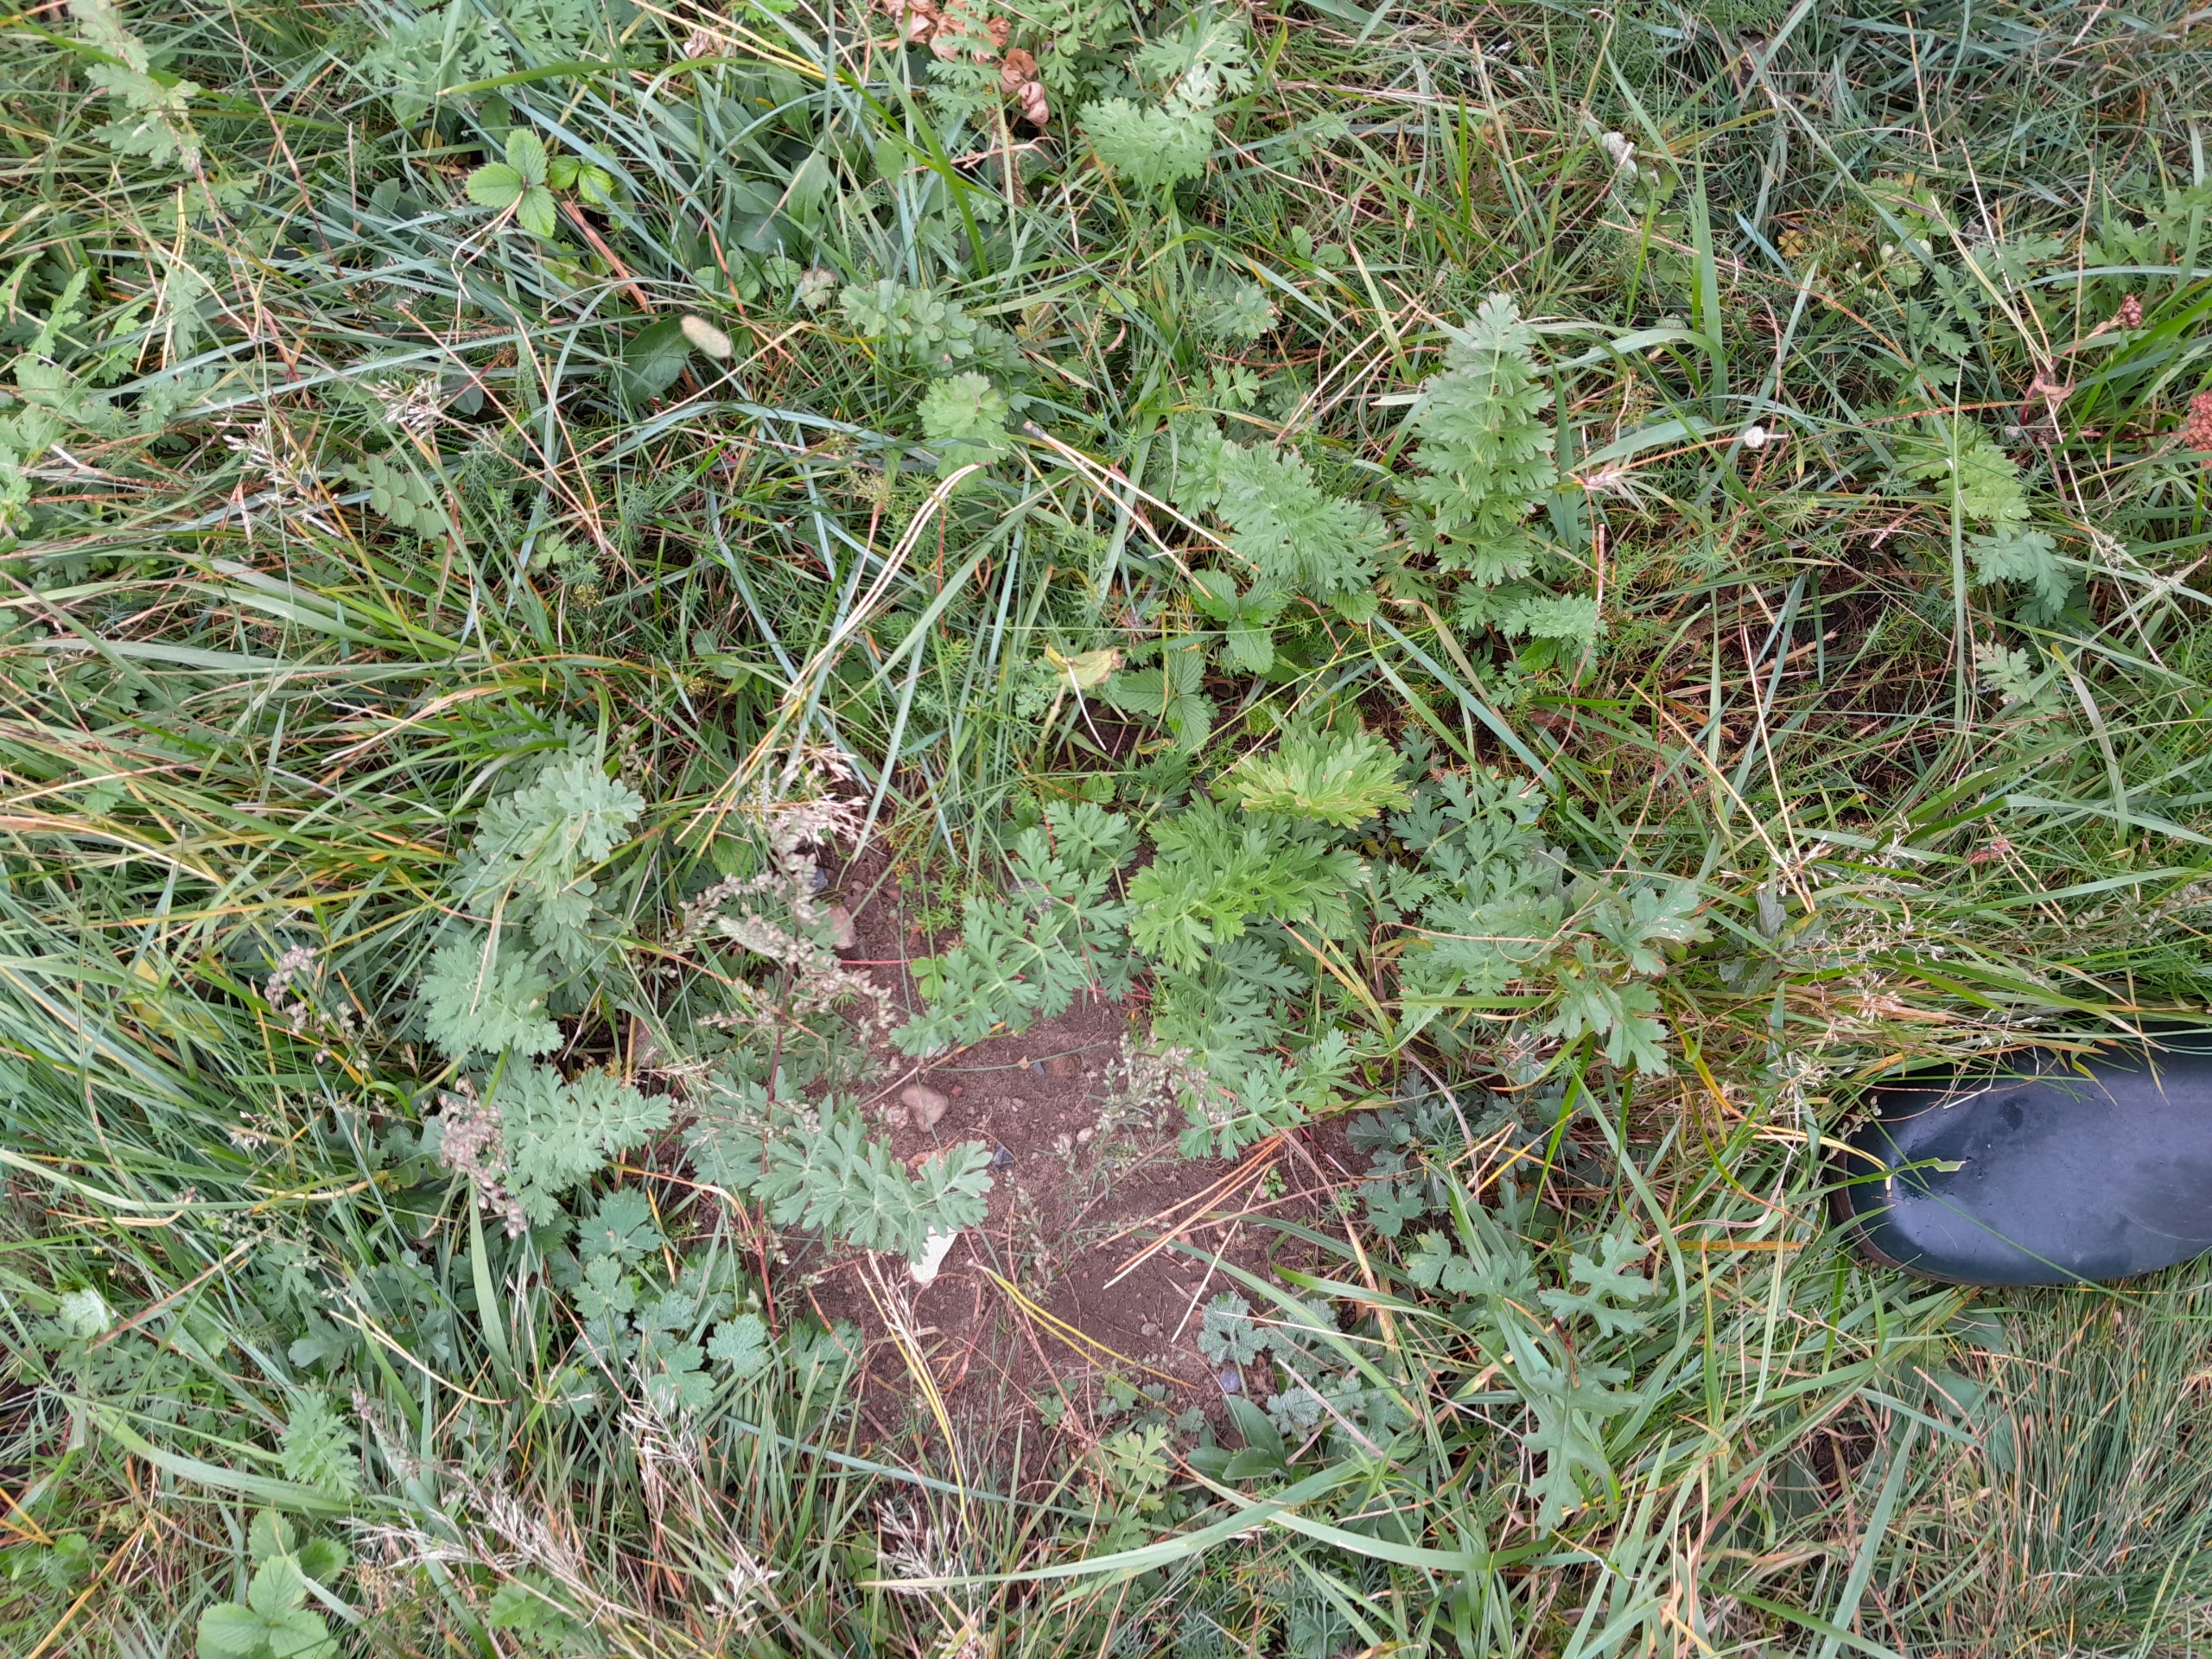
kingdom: Plantae
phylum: Tracheophyta
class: Magnoliopsida
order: Apiales
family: Apiaceae
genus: Seseli
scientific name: Seseli libanotis
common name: Hjorterod
